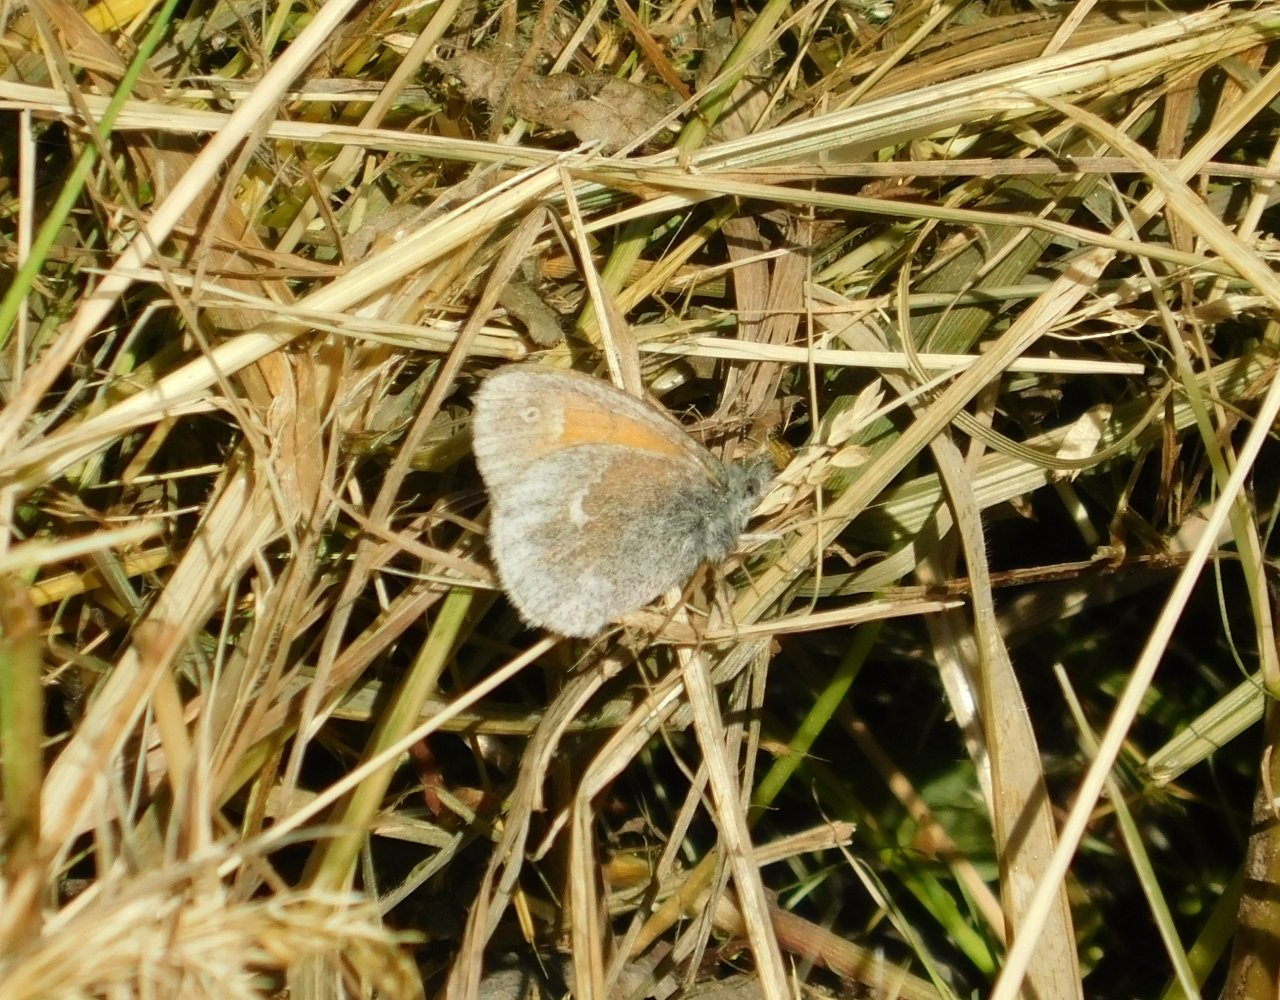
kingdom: Animalia
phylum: Arthropoda
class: Insecta
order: Lepidoptera
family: Nymphalidae
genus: Coenonympha
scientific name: Coenonympha tullia
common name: Large Heath
